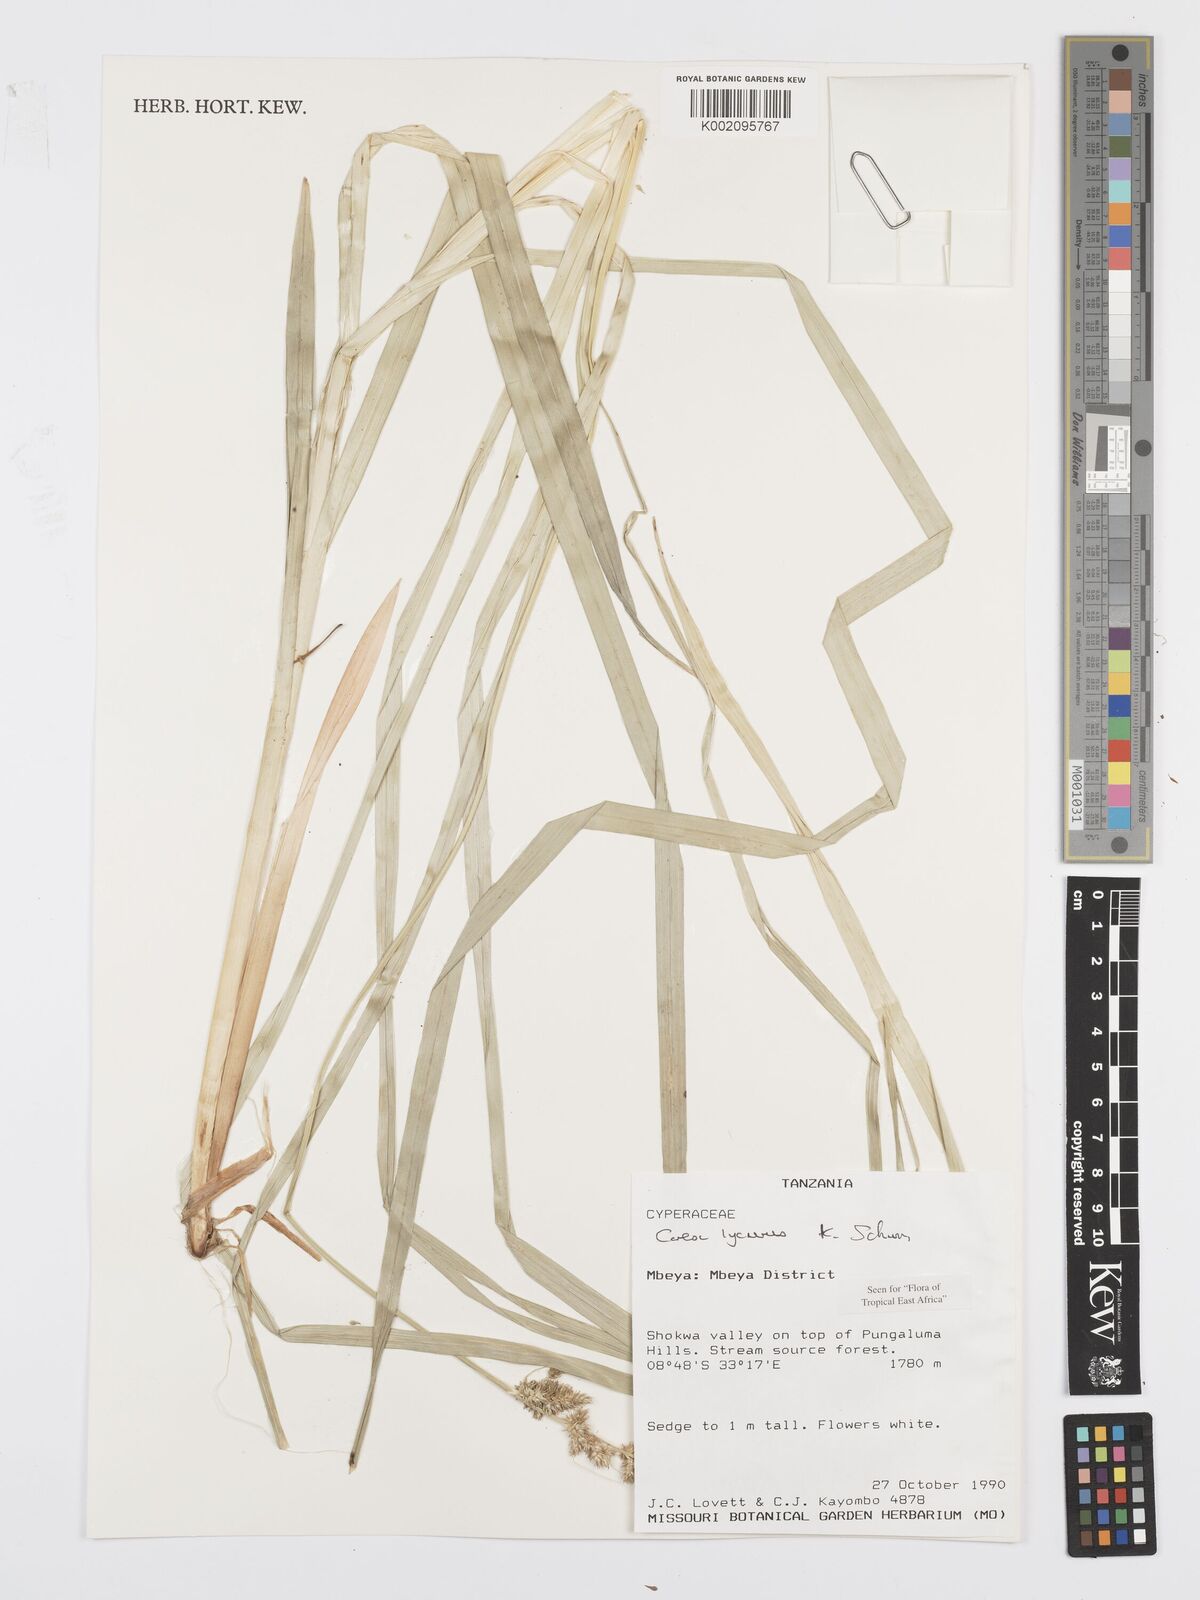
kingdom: Plantae
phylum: Tracheophyta
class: Liliopsida
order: Poales
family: Cyperaceae
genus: Carex
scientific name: Carex lycurus
